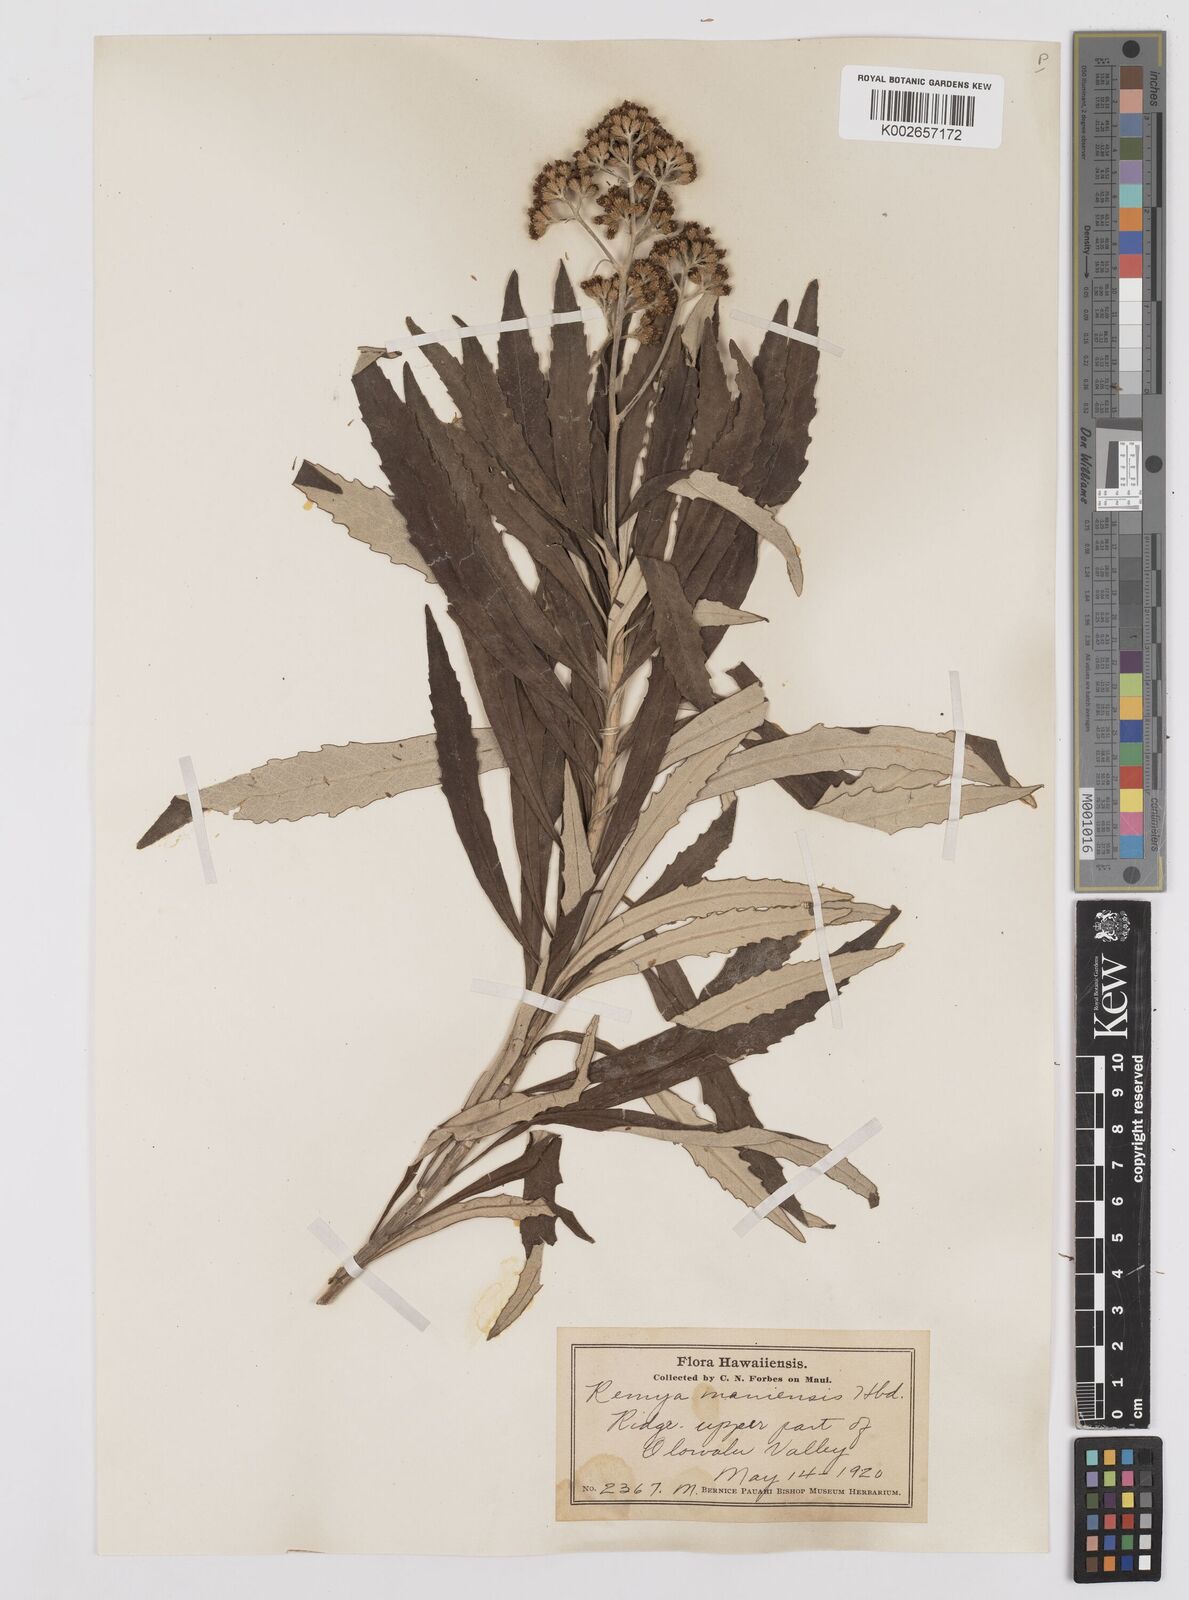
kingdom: Plantae
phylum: Tracheophyta
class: Magnoliopsida
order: Asterales
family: Asteraceae
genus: Remya
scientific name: Remya mauiensis
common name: Maui remya
